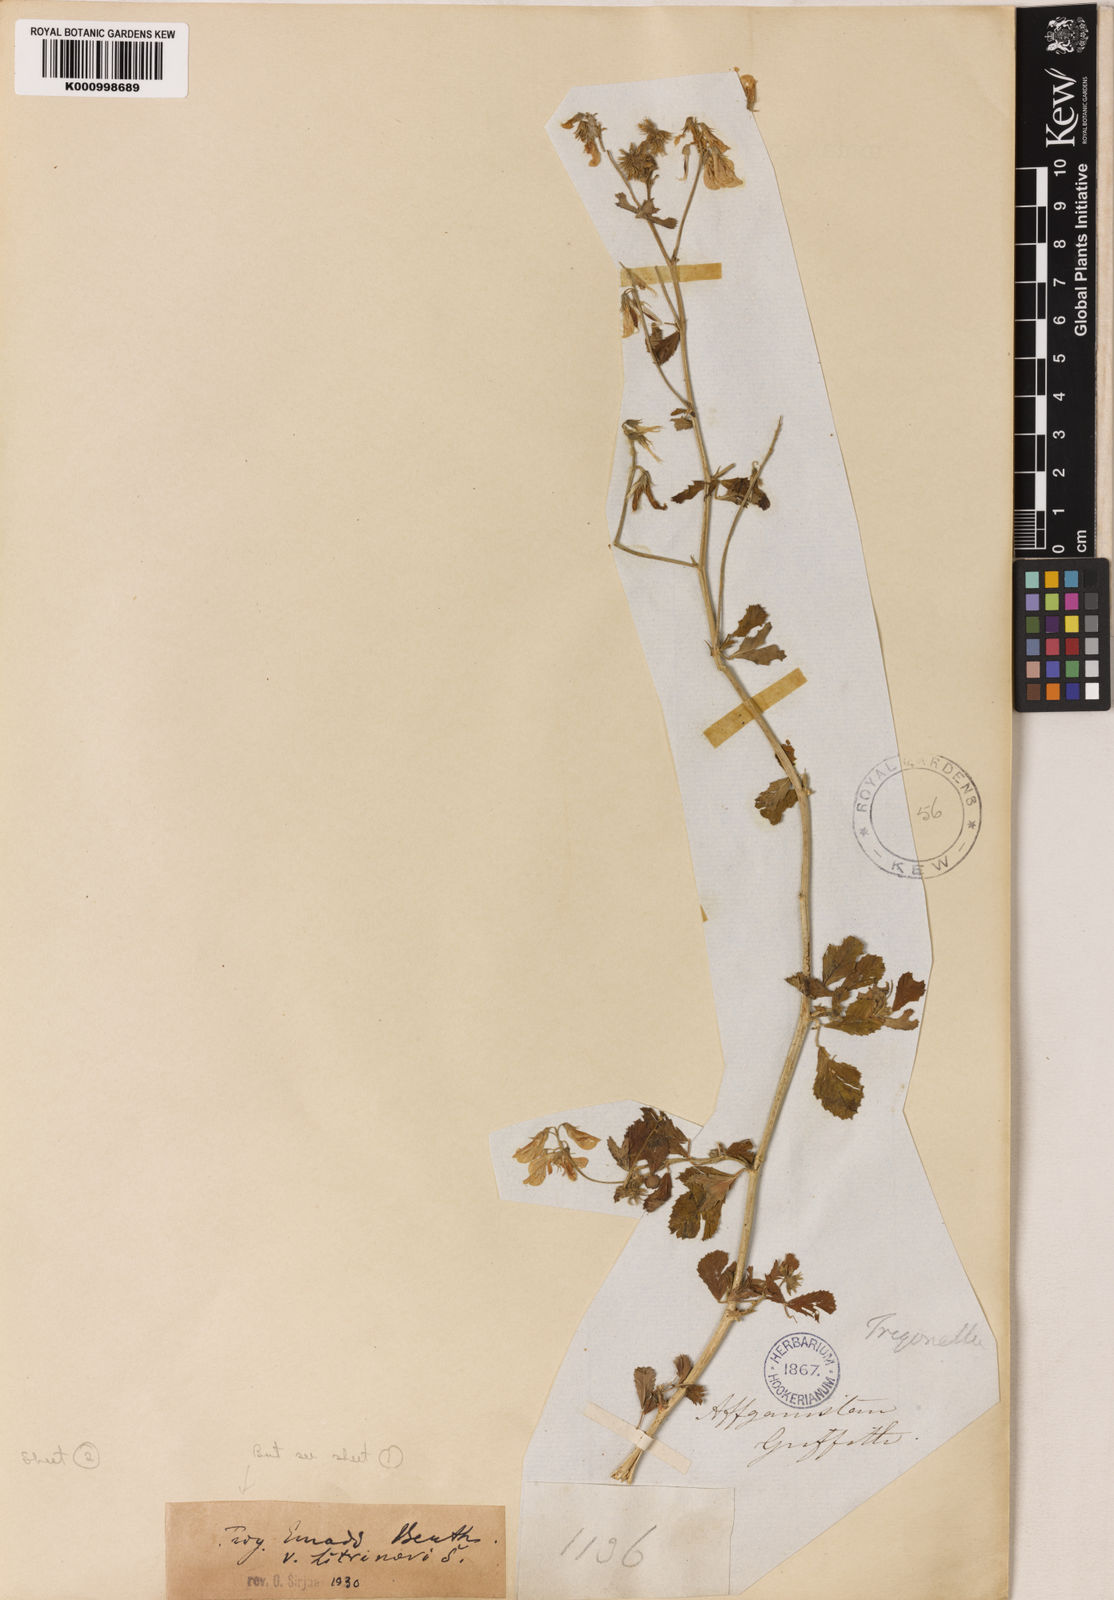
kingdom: Plantae
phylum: Tracheophyta
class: Magnoliopsida
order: Fabales
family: Fabaceae
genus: Trigonella
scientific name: Trigonella laxiflora
